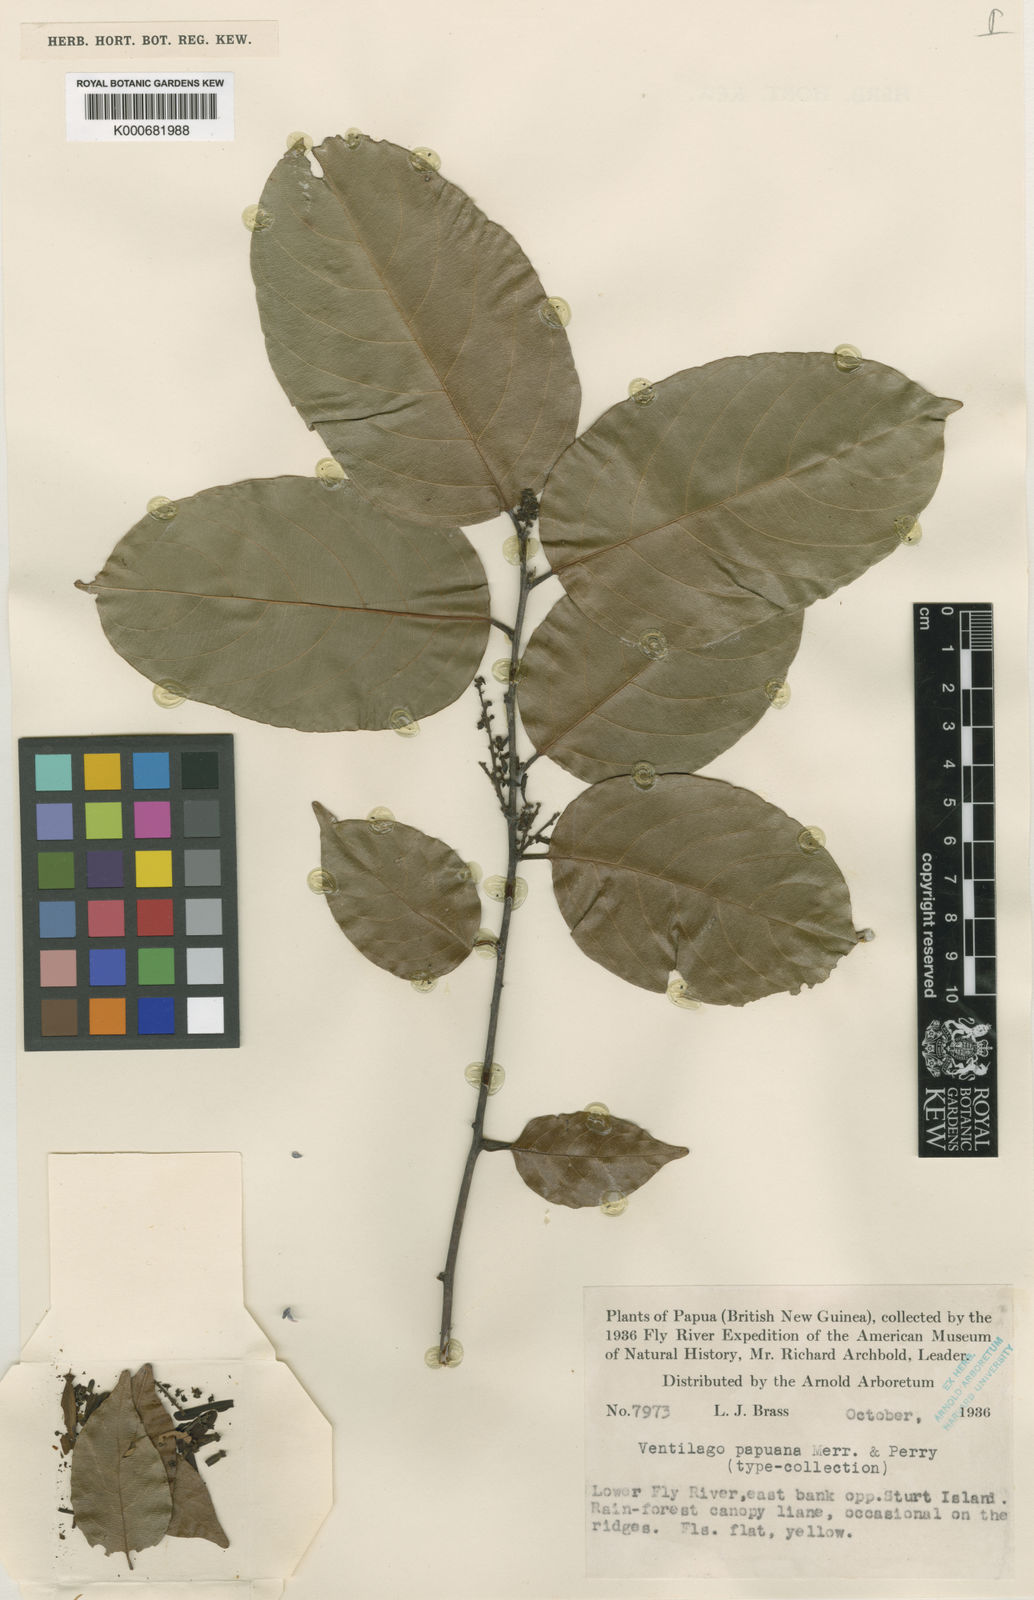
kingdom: Plantae
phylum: Tracheophyta
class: Magnoliopsida
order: Rosales
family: Rhamnaceae
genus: Ventilago
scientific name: Ventilago microcarpa
